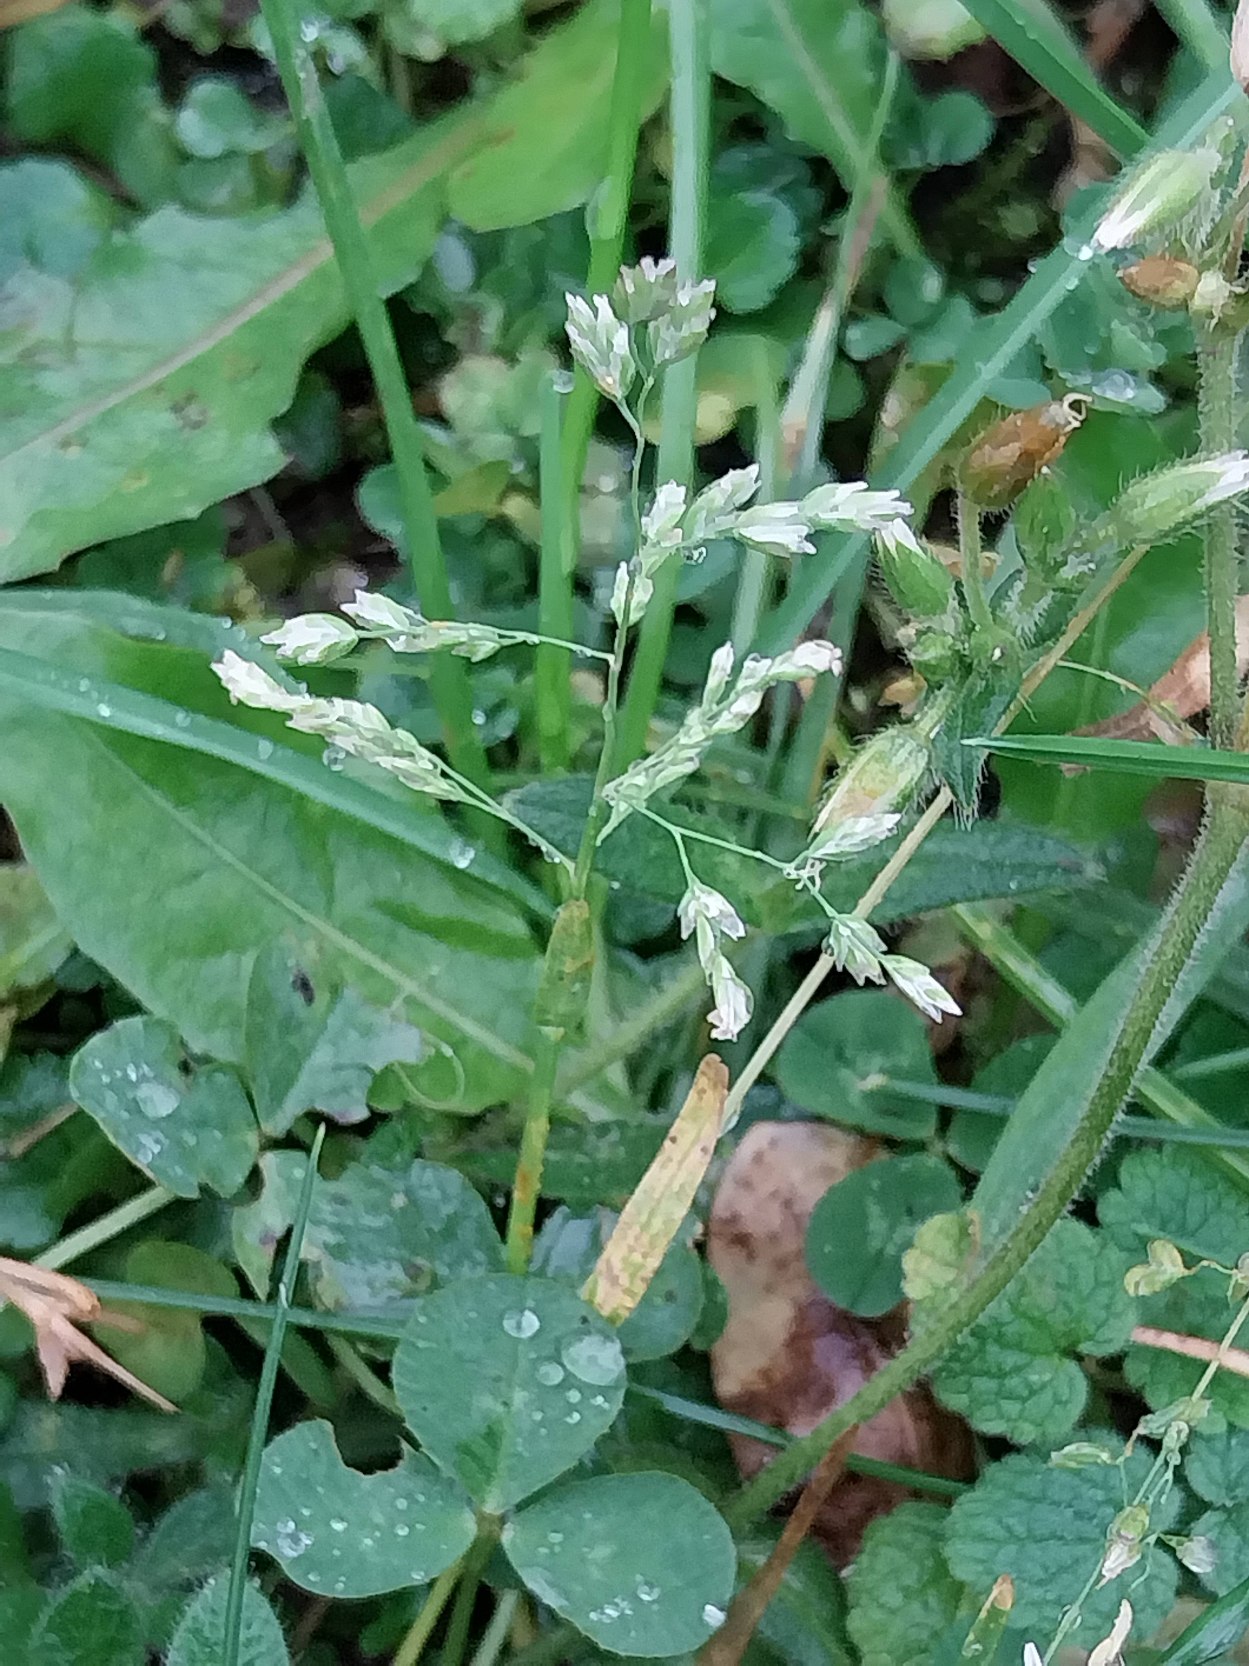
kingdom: Plantae
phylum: Tracheophyta
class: Liliopsida
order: Poales
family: Poaceae
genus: Poa
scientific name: Poa annua
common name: Enårig rapgræs
